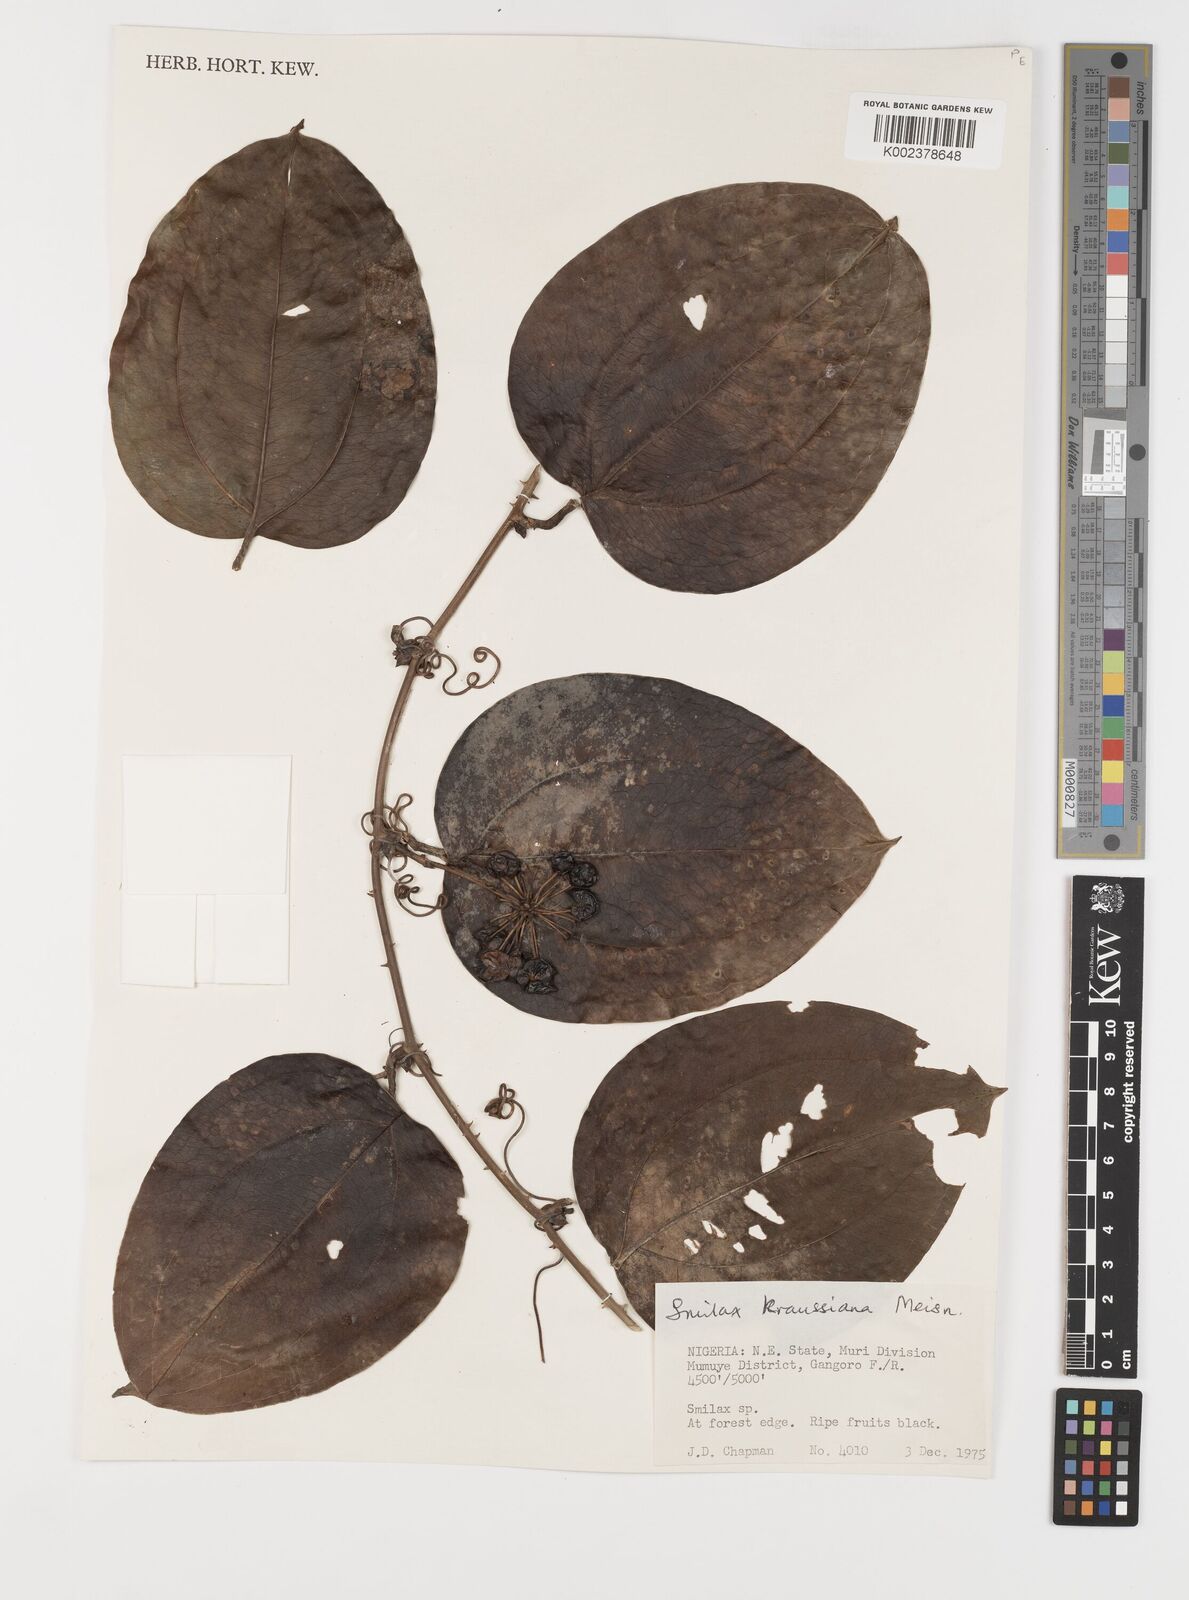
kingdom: Plantae
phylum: Tracheophyta
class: Liliopsida
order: Liliales
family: Smilacaceae
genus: Smilax
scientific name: Smilax anceps
